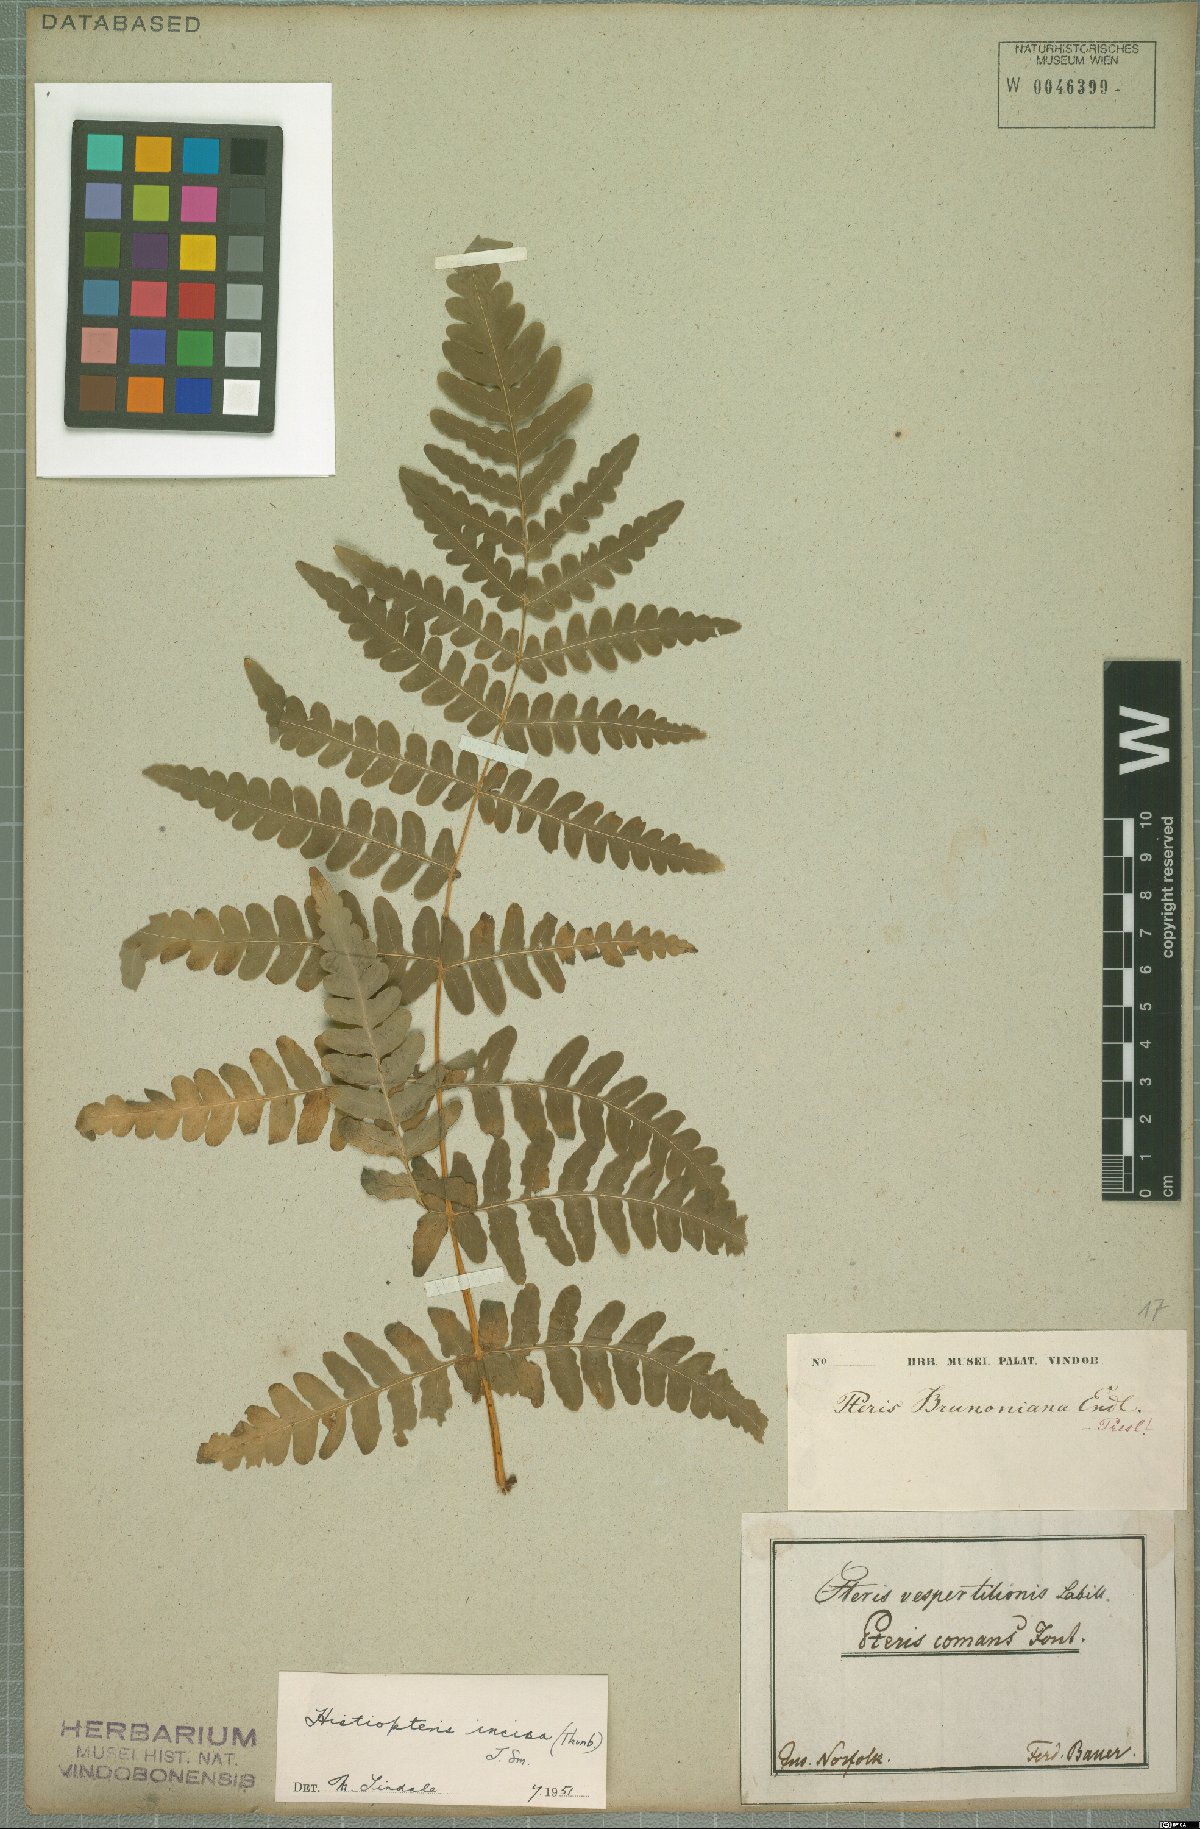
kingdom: Plantae
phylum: Tracheophyta
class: Polypodiopsida
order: Polypodiales
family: Dennstaedtiaceae
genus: Histiopteris
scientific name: Histiopteris incisa
